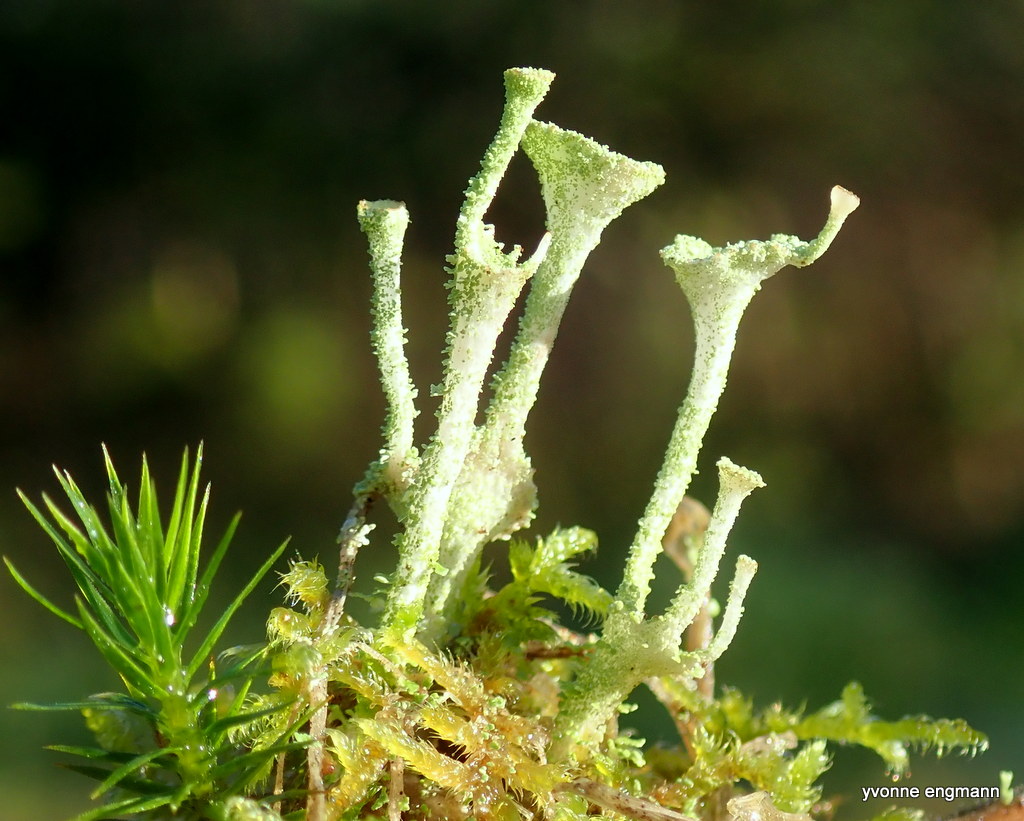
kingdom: Fungi
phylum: Ascomycota
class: Lecanoromycetes
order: Lecanorales
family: Cladoniaceae
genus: Cladonia
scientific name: Cladonia
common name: brungrøn bægerlav
